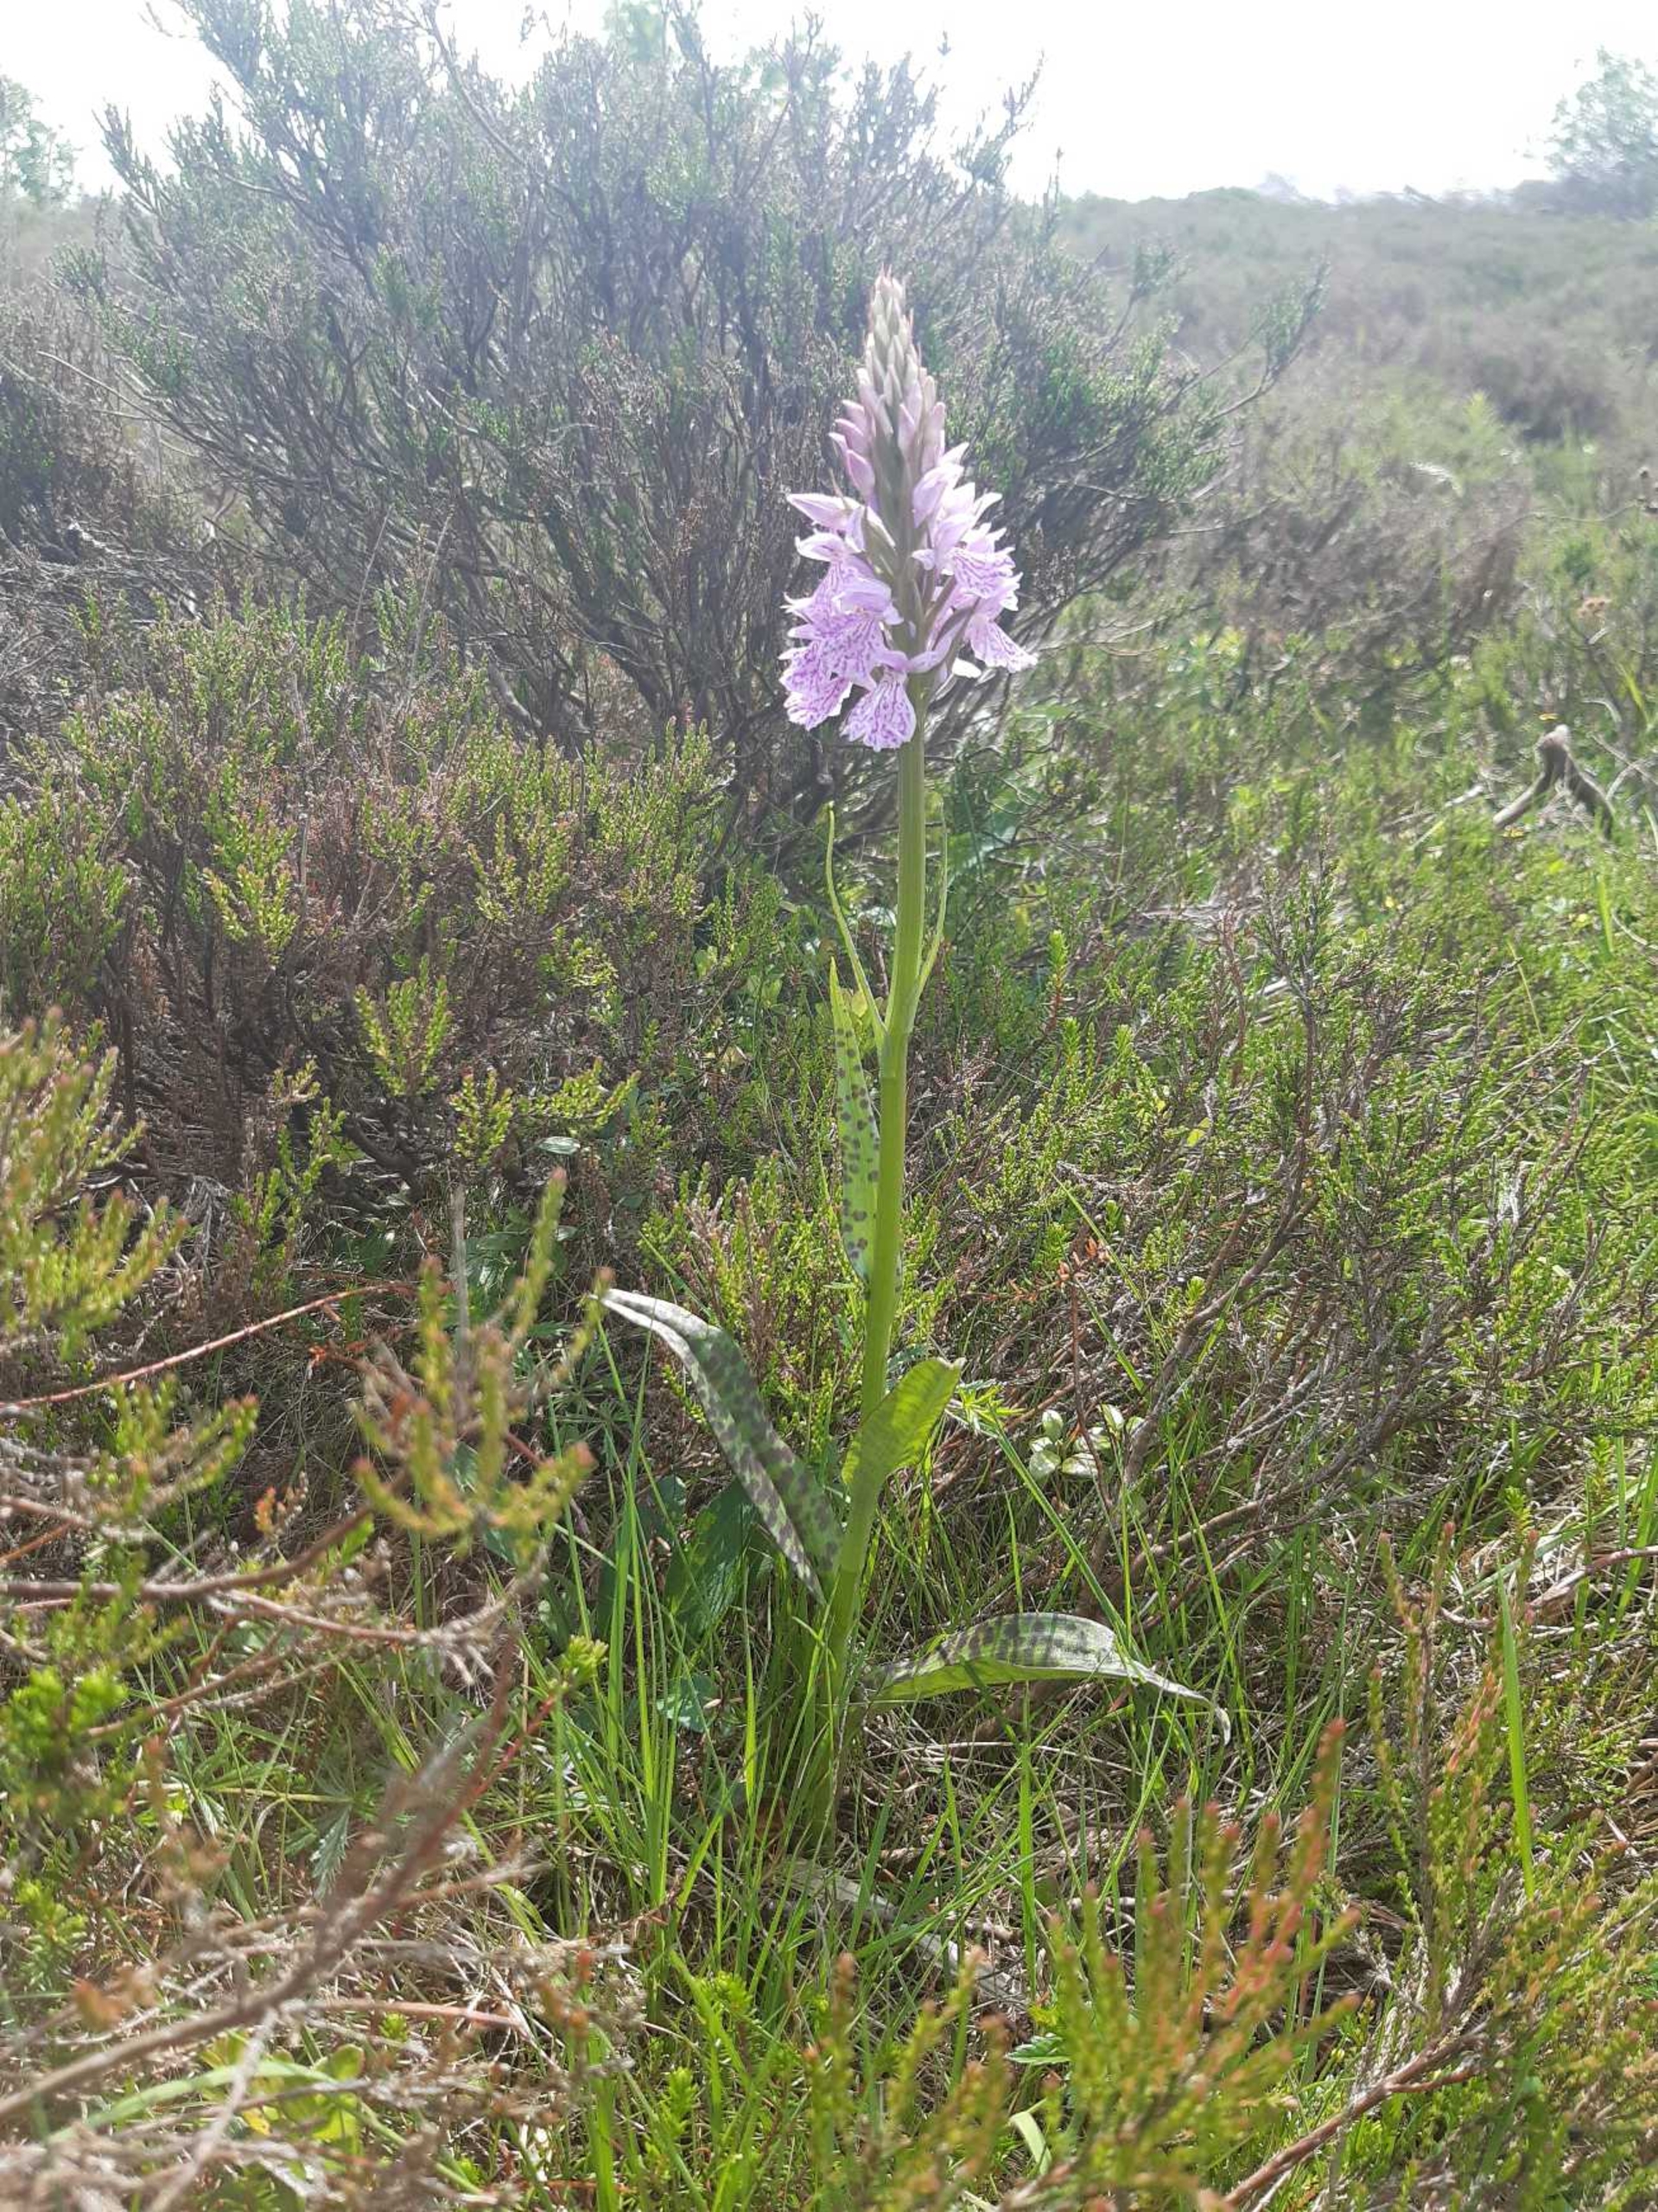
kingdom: Plantae
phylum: Tracheophyta
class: Liliopsida
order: Asparagales
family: Orchidaceae
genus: Dactylorhiza
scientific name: Dactylorhiza maculata
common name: Plettet gøgeurt (underart)
